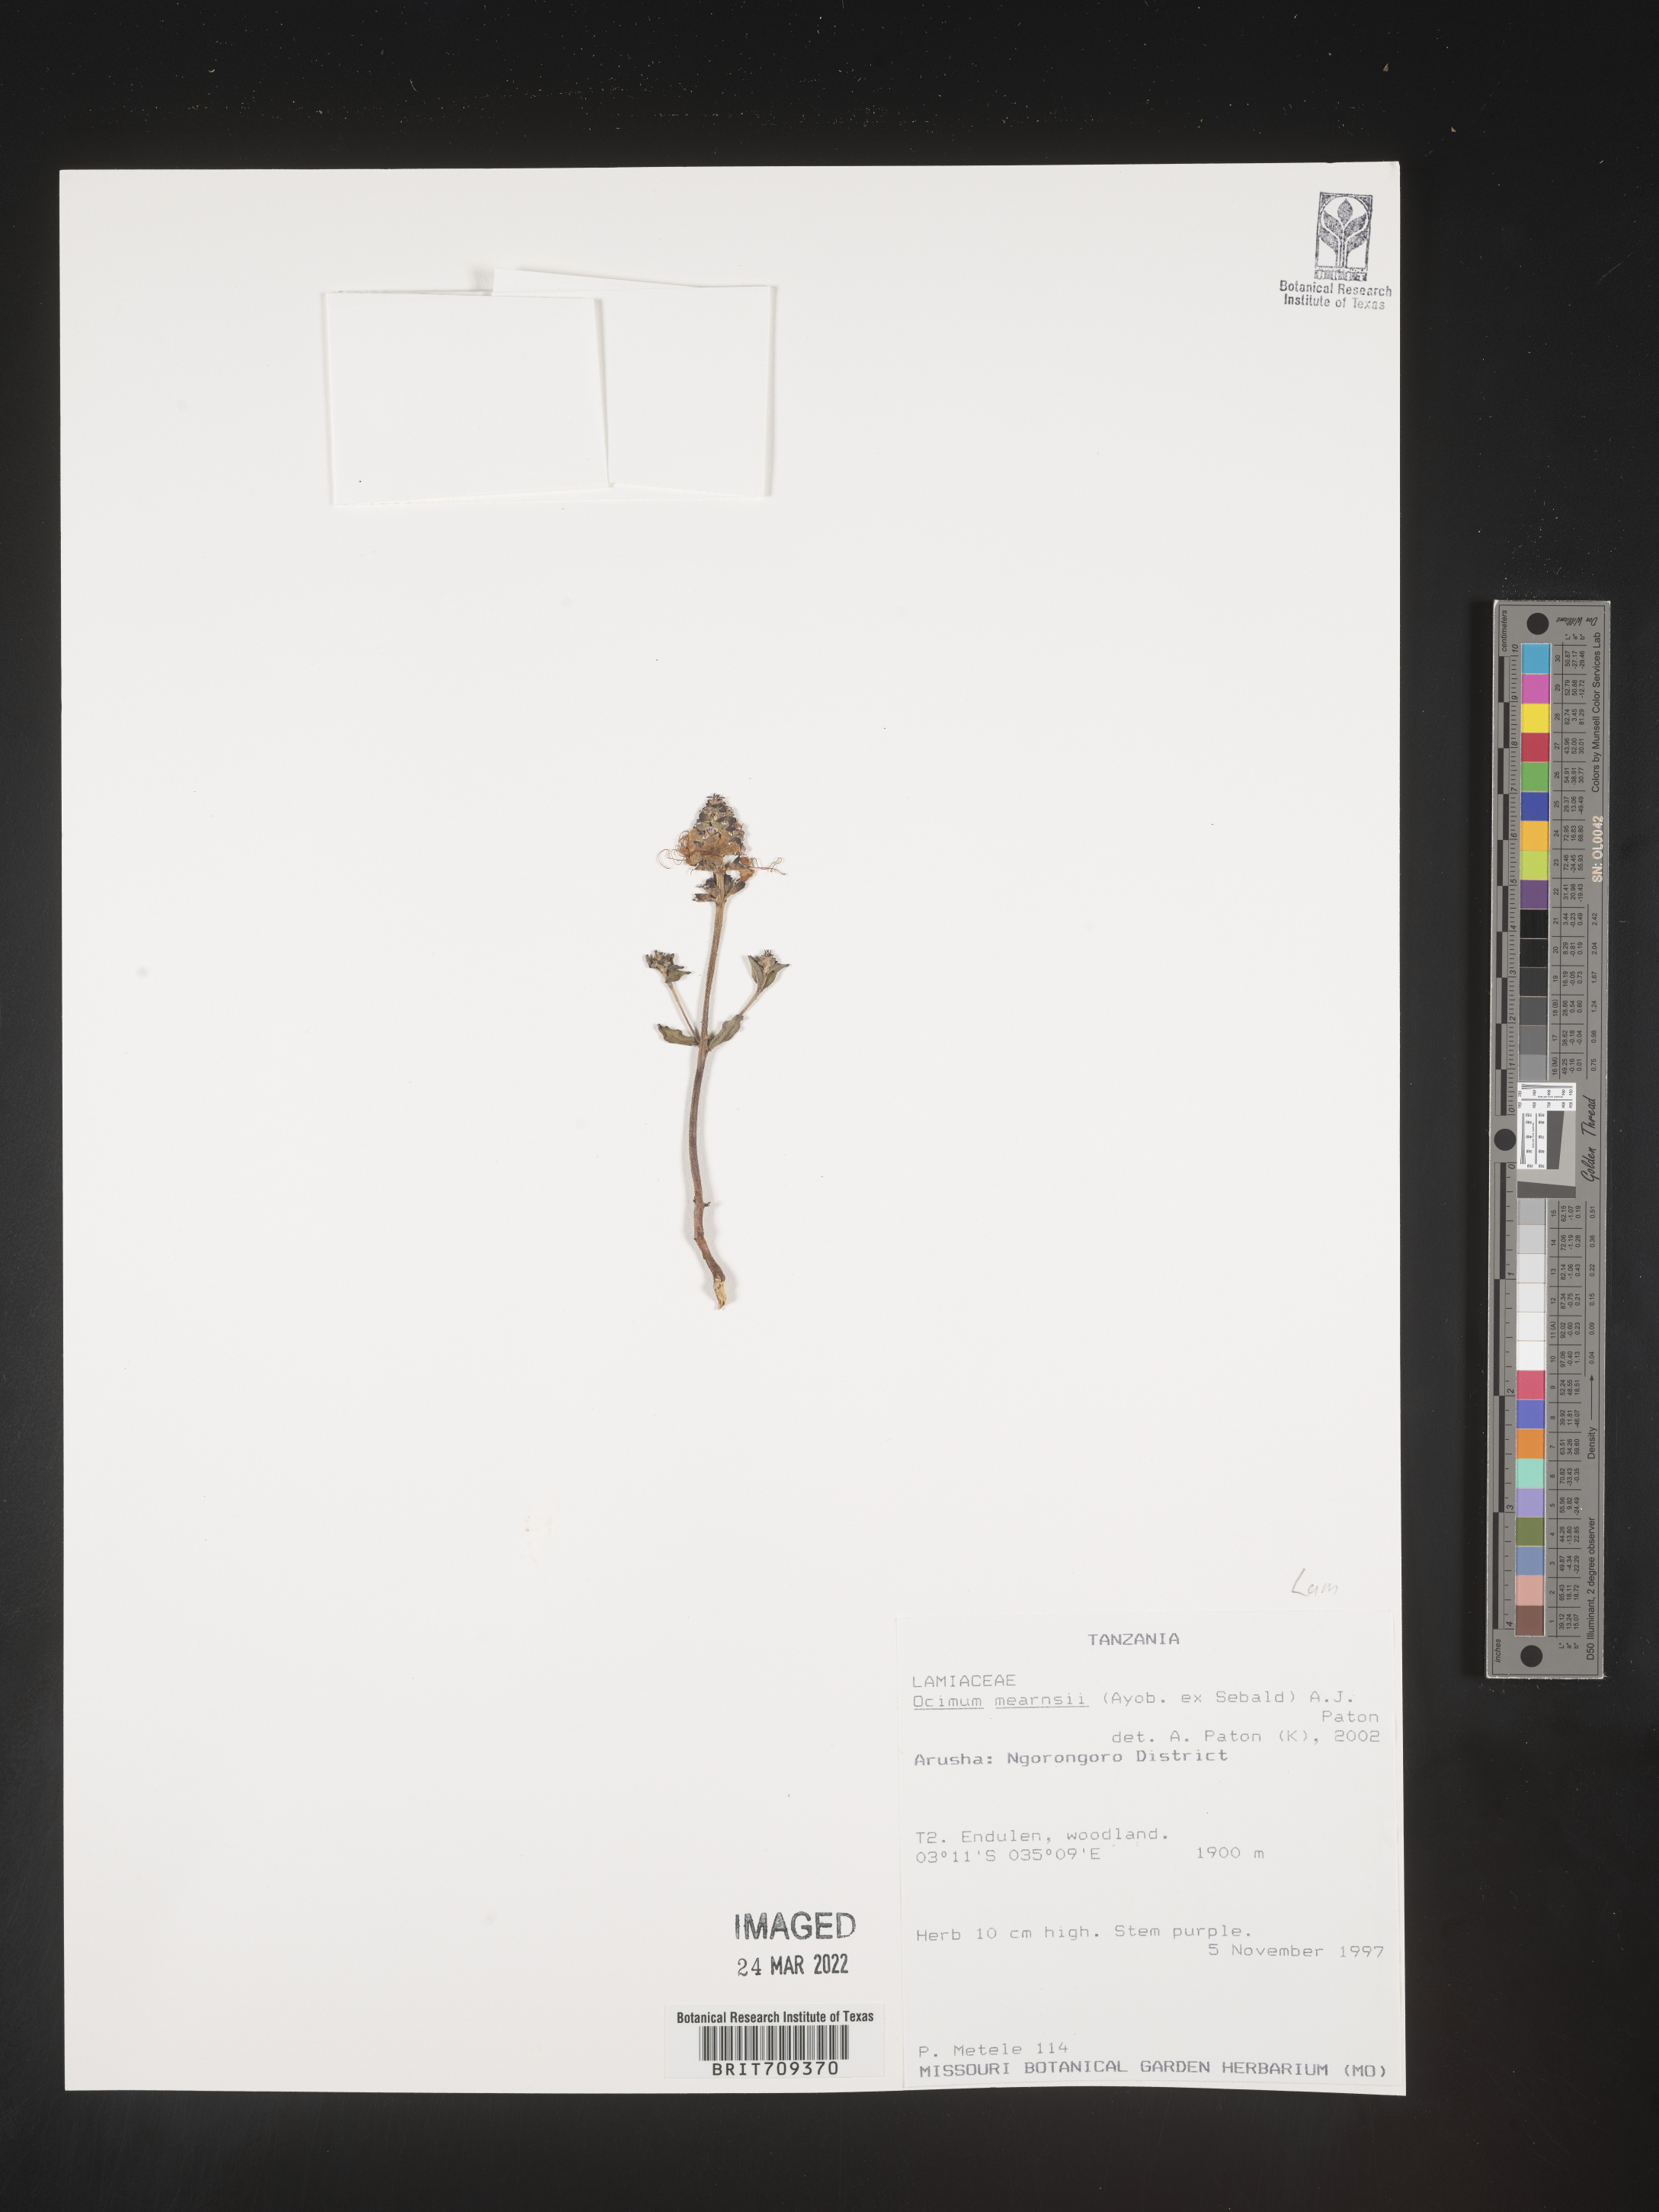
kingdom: Plantae
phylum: Tracheophyta
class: Magnoliopsida
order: Lamiales
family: Lamiaceae
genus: Ocimum
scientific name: Ocimum
